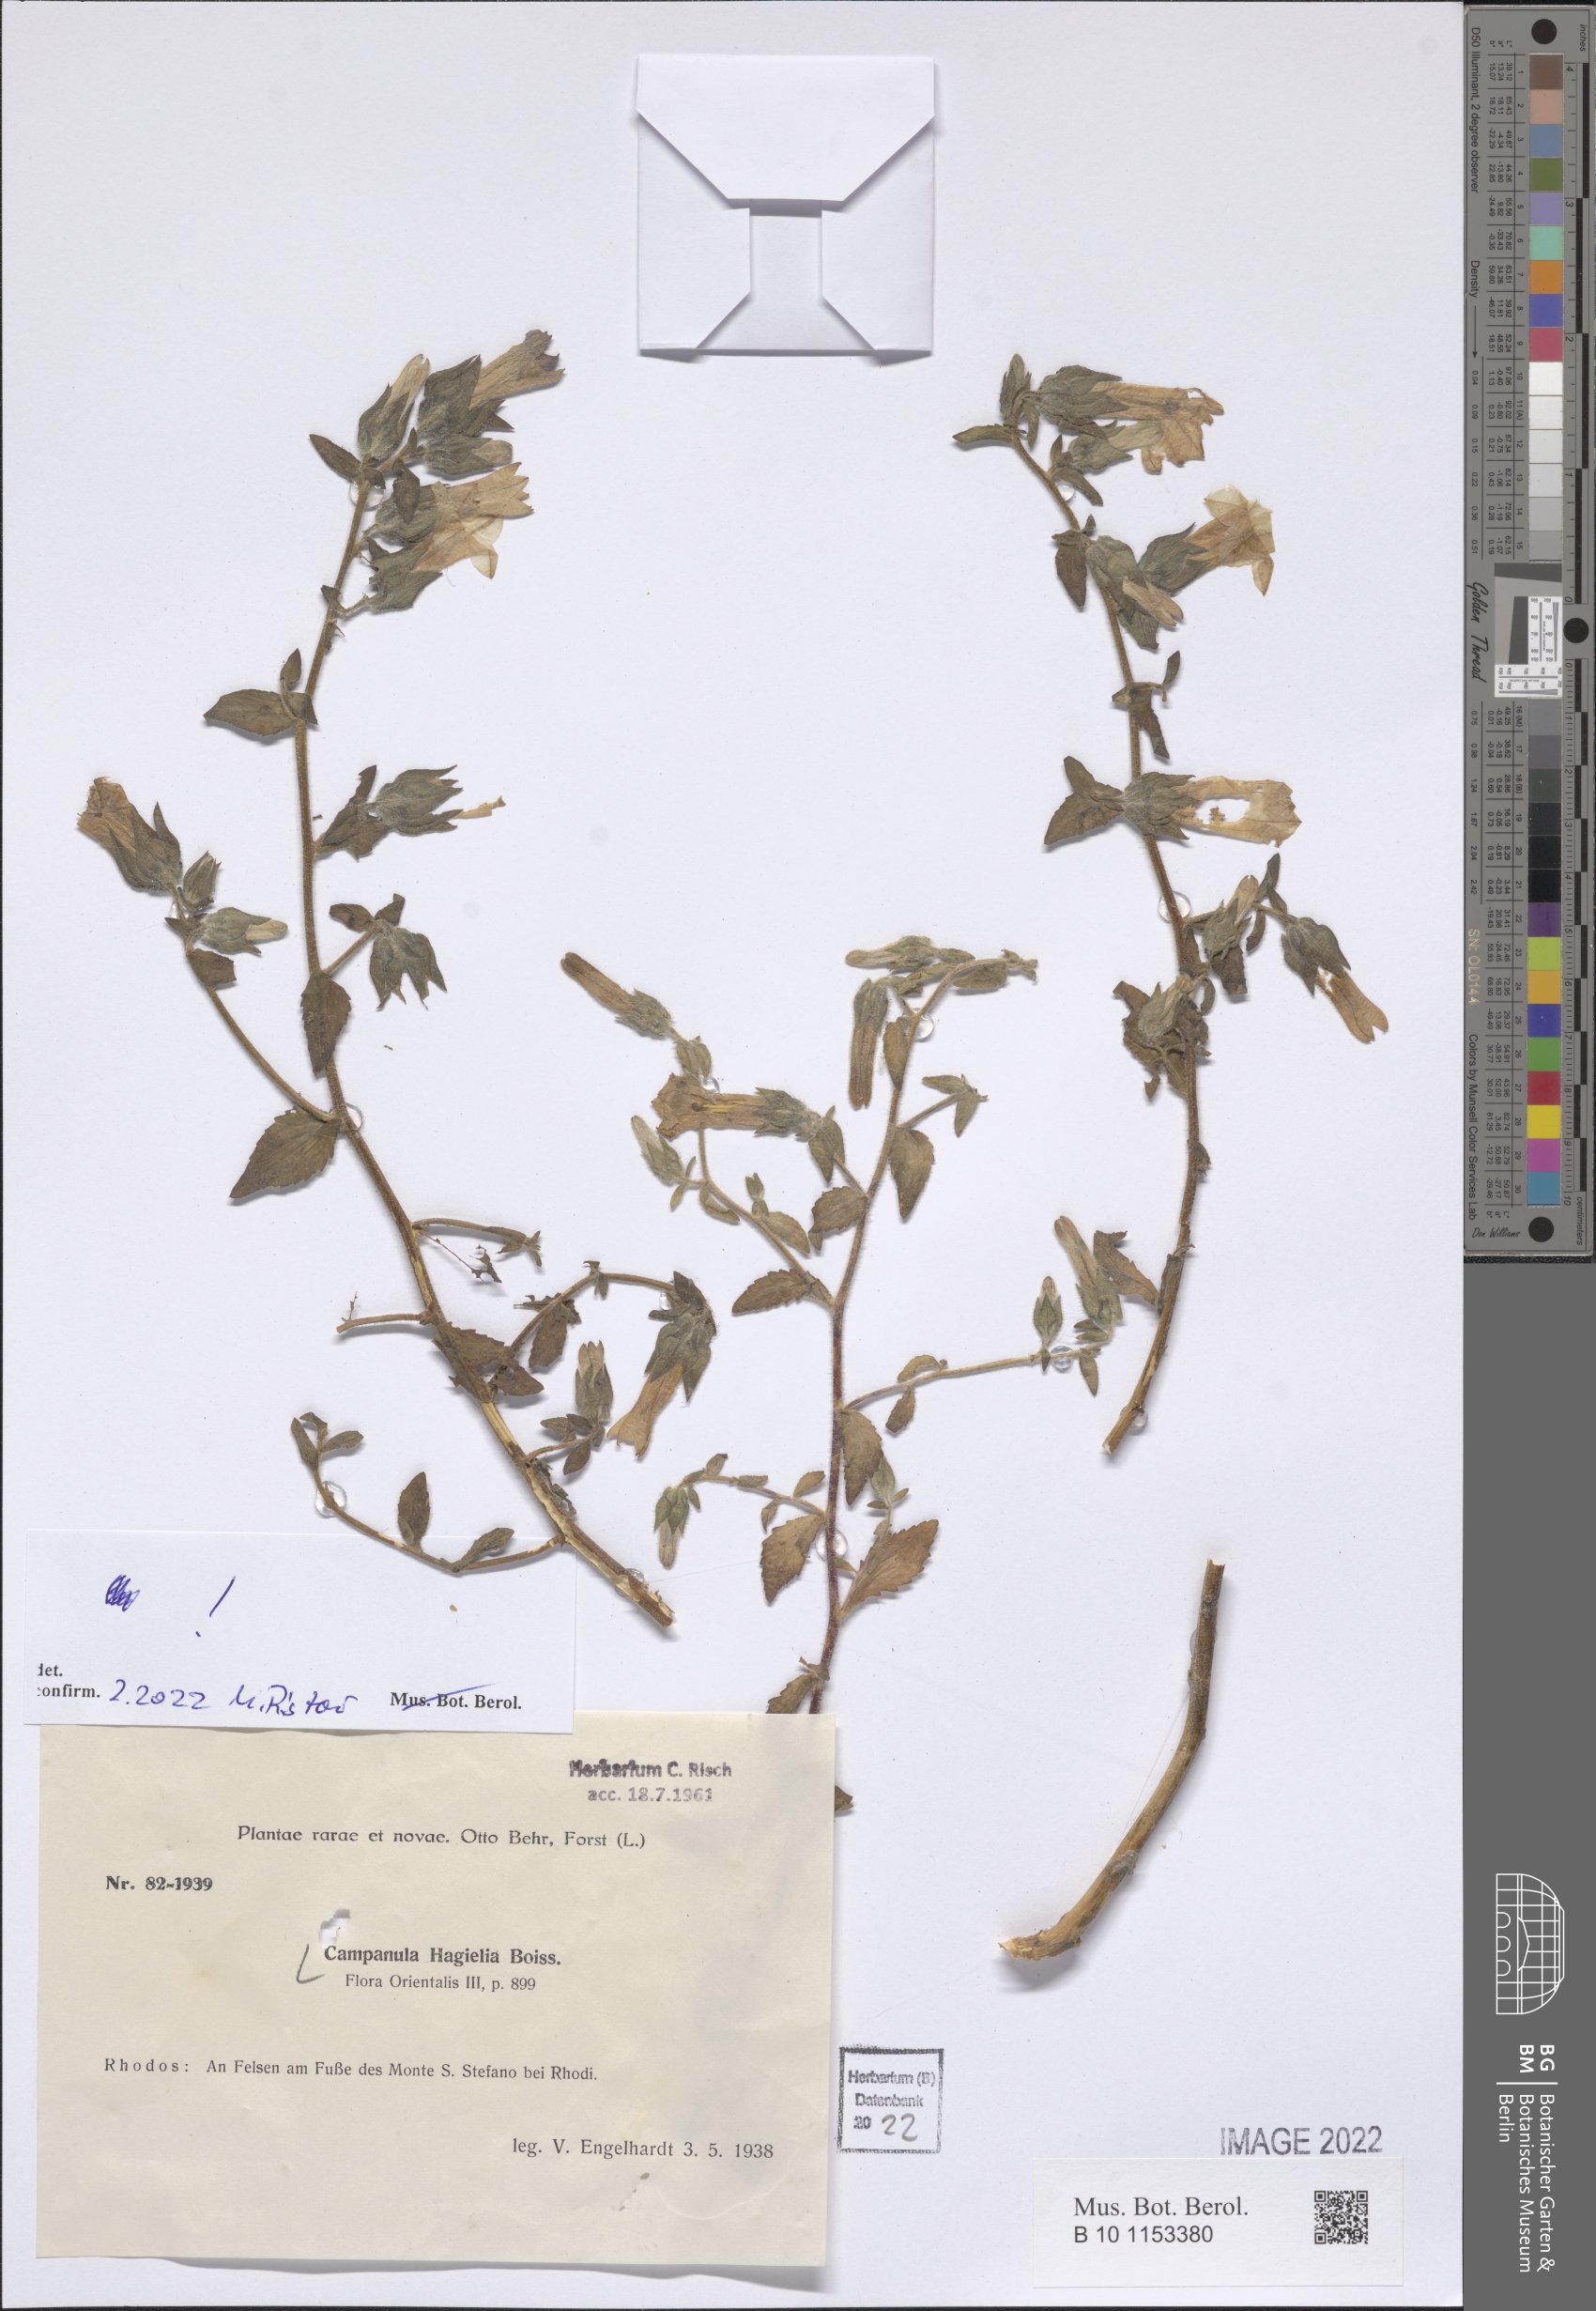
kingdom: Plantae
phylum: Tracheophyta
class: Magnoliopsida
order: Asterales
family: Campanulaceae
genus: Campanula
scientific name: Campanula hagielia
